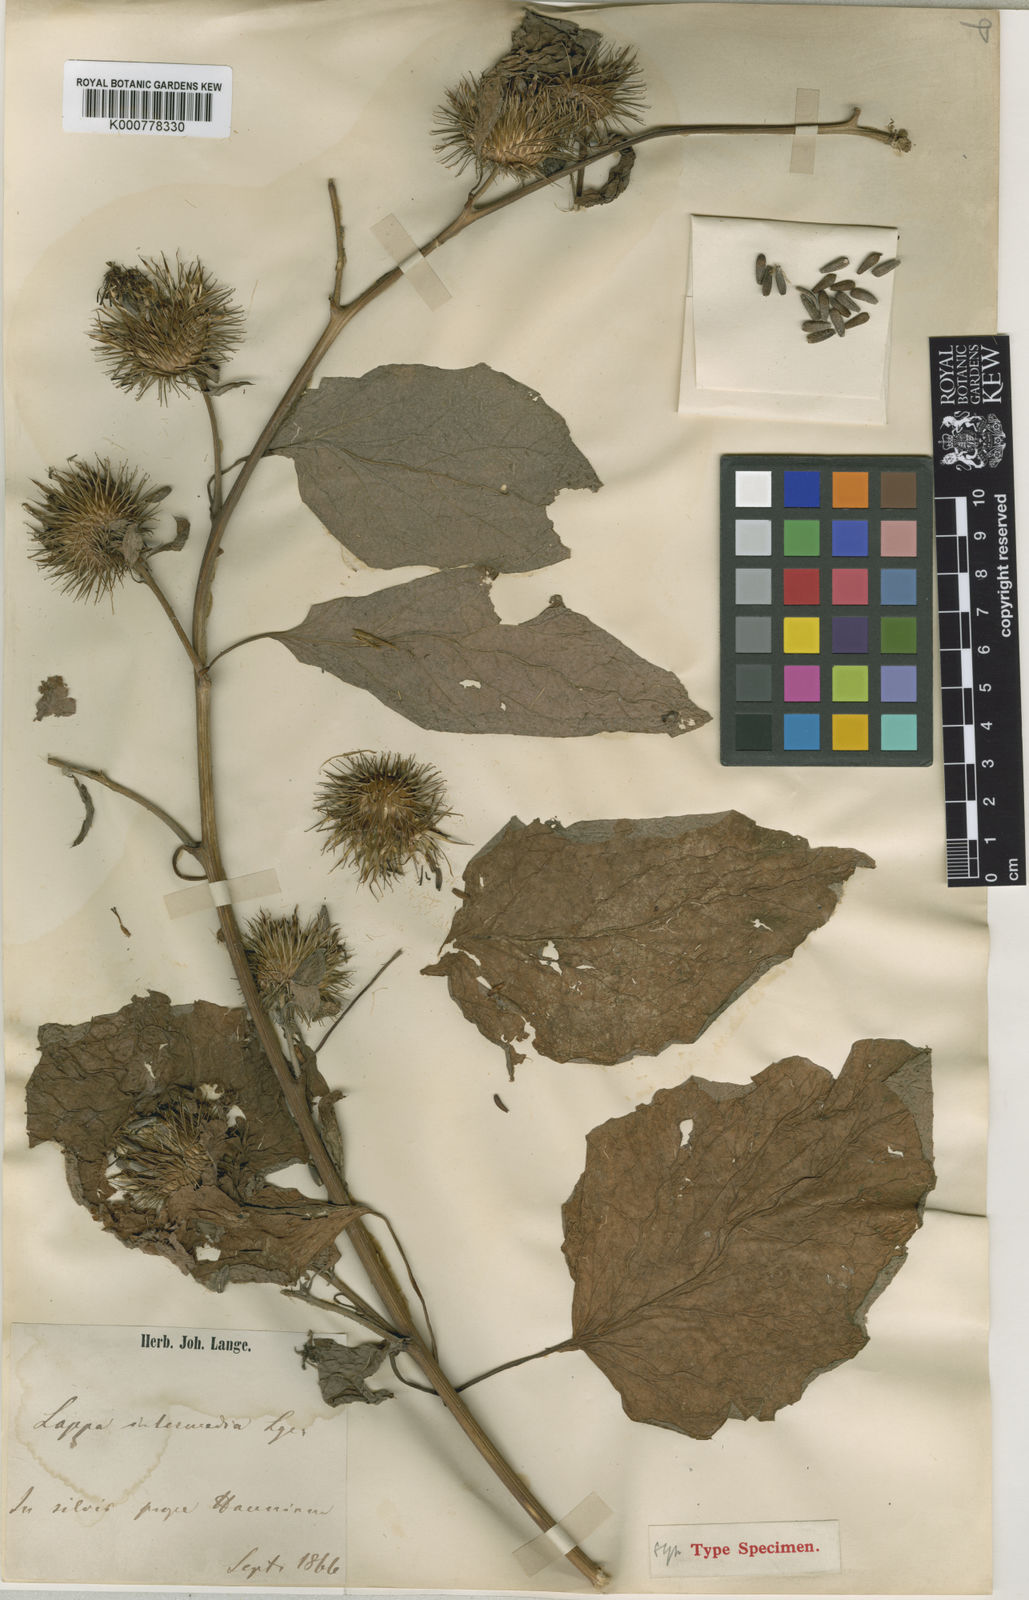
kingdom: Plantae
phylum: Tracheophyta
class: Magnoliopsida
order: Asterales
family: Asteraceae
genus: Arctium
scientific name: Arctium nemorosum
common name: Wood burdock
